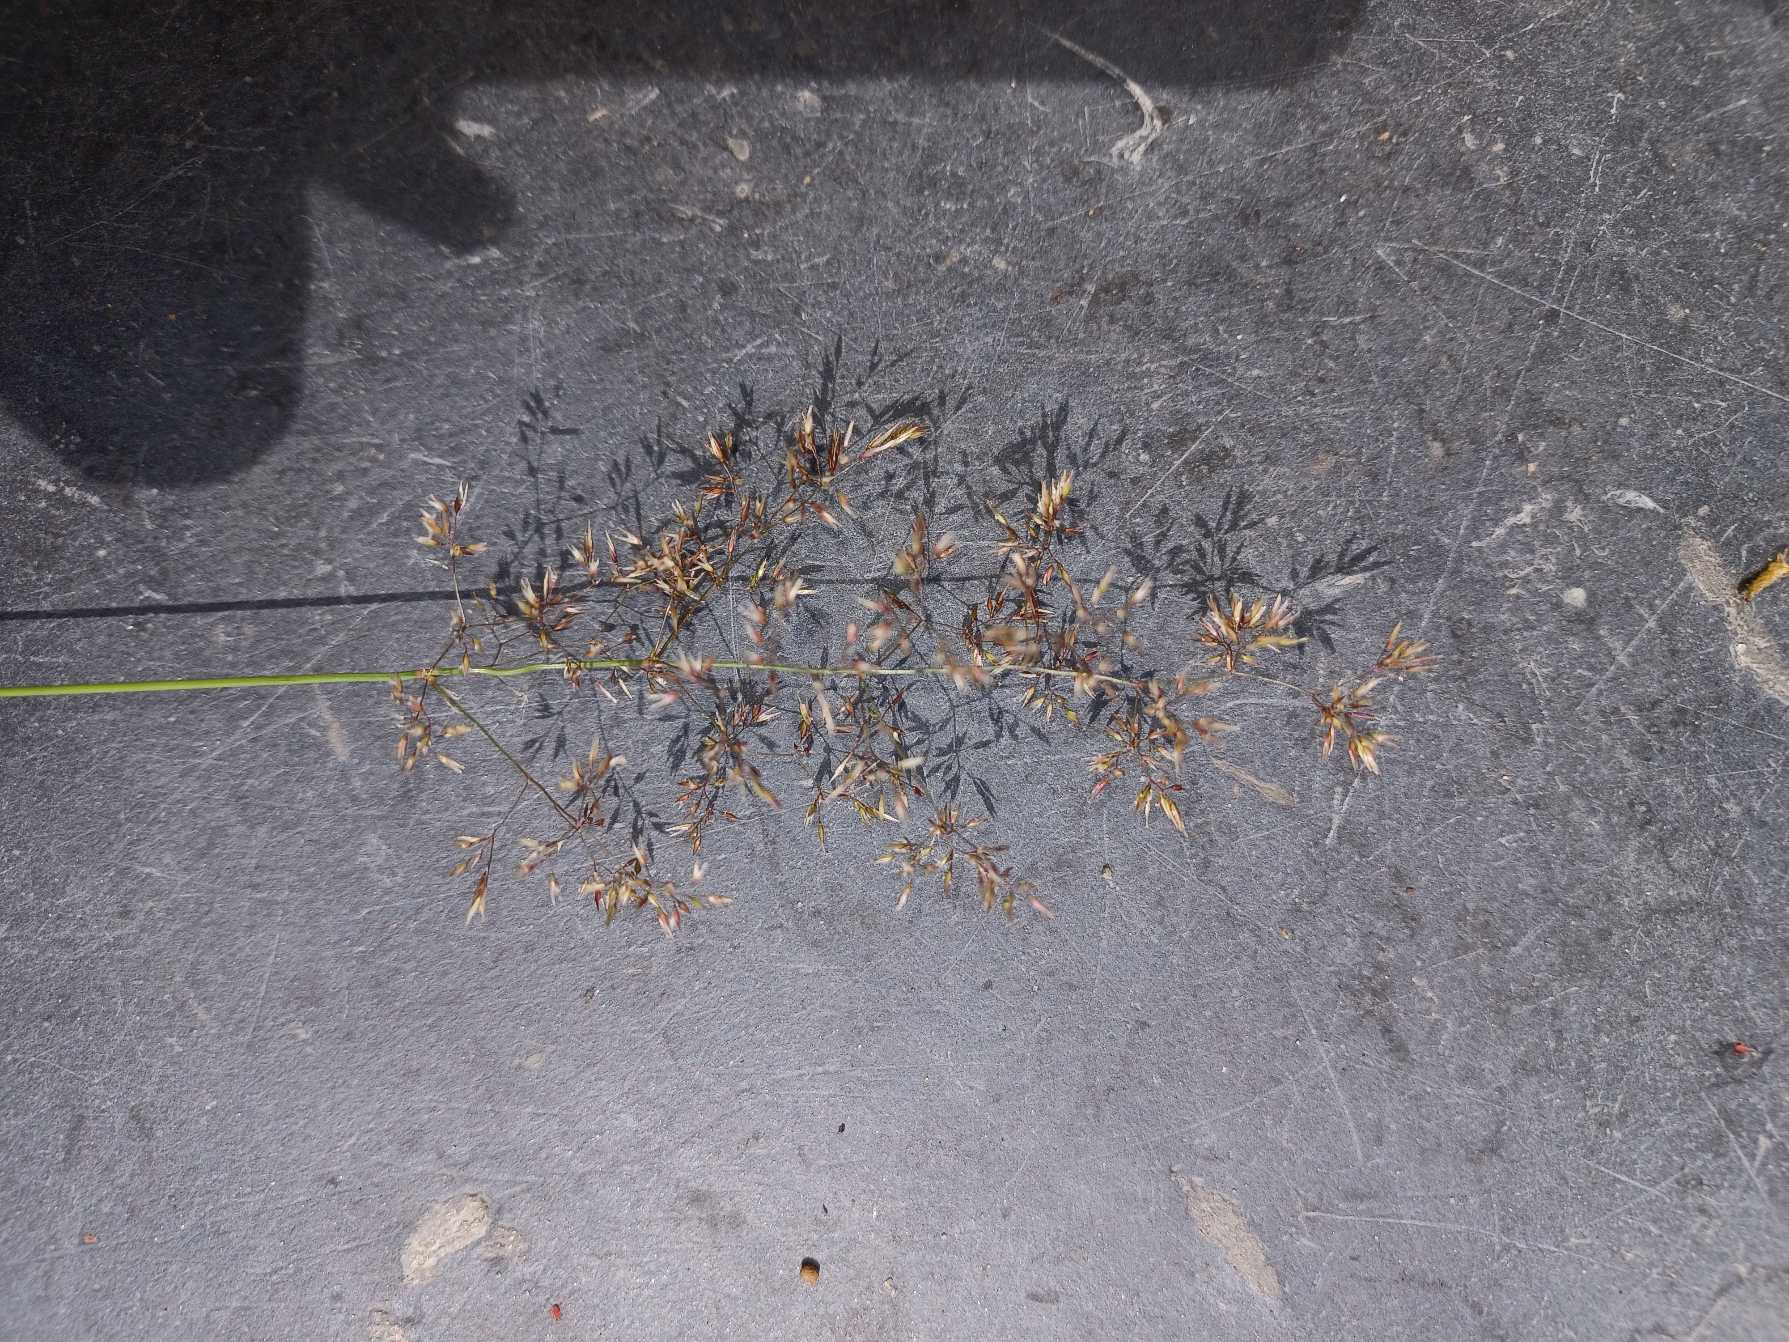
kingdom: Plantae
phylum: Tracheophyta
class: Liliopsida
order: Poales
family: Poaceae
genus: Agrostis
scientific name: Agrostis capillaris
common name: Almindelig hvene
